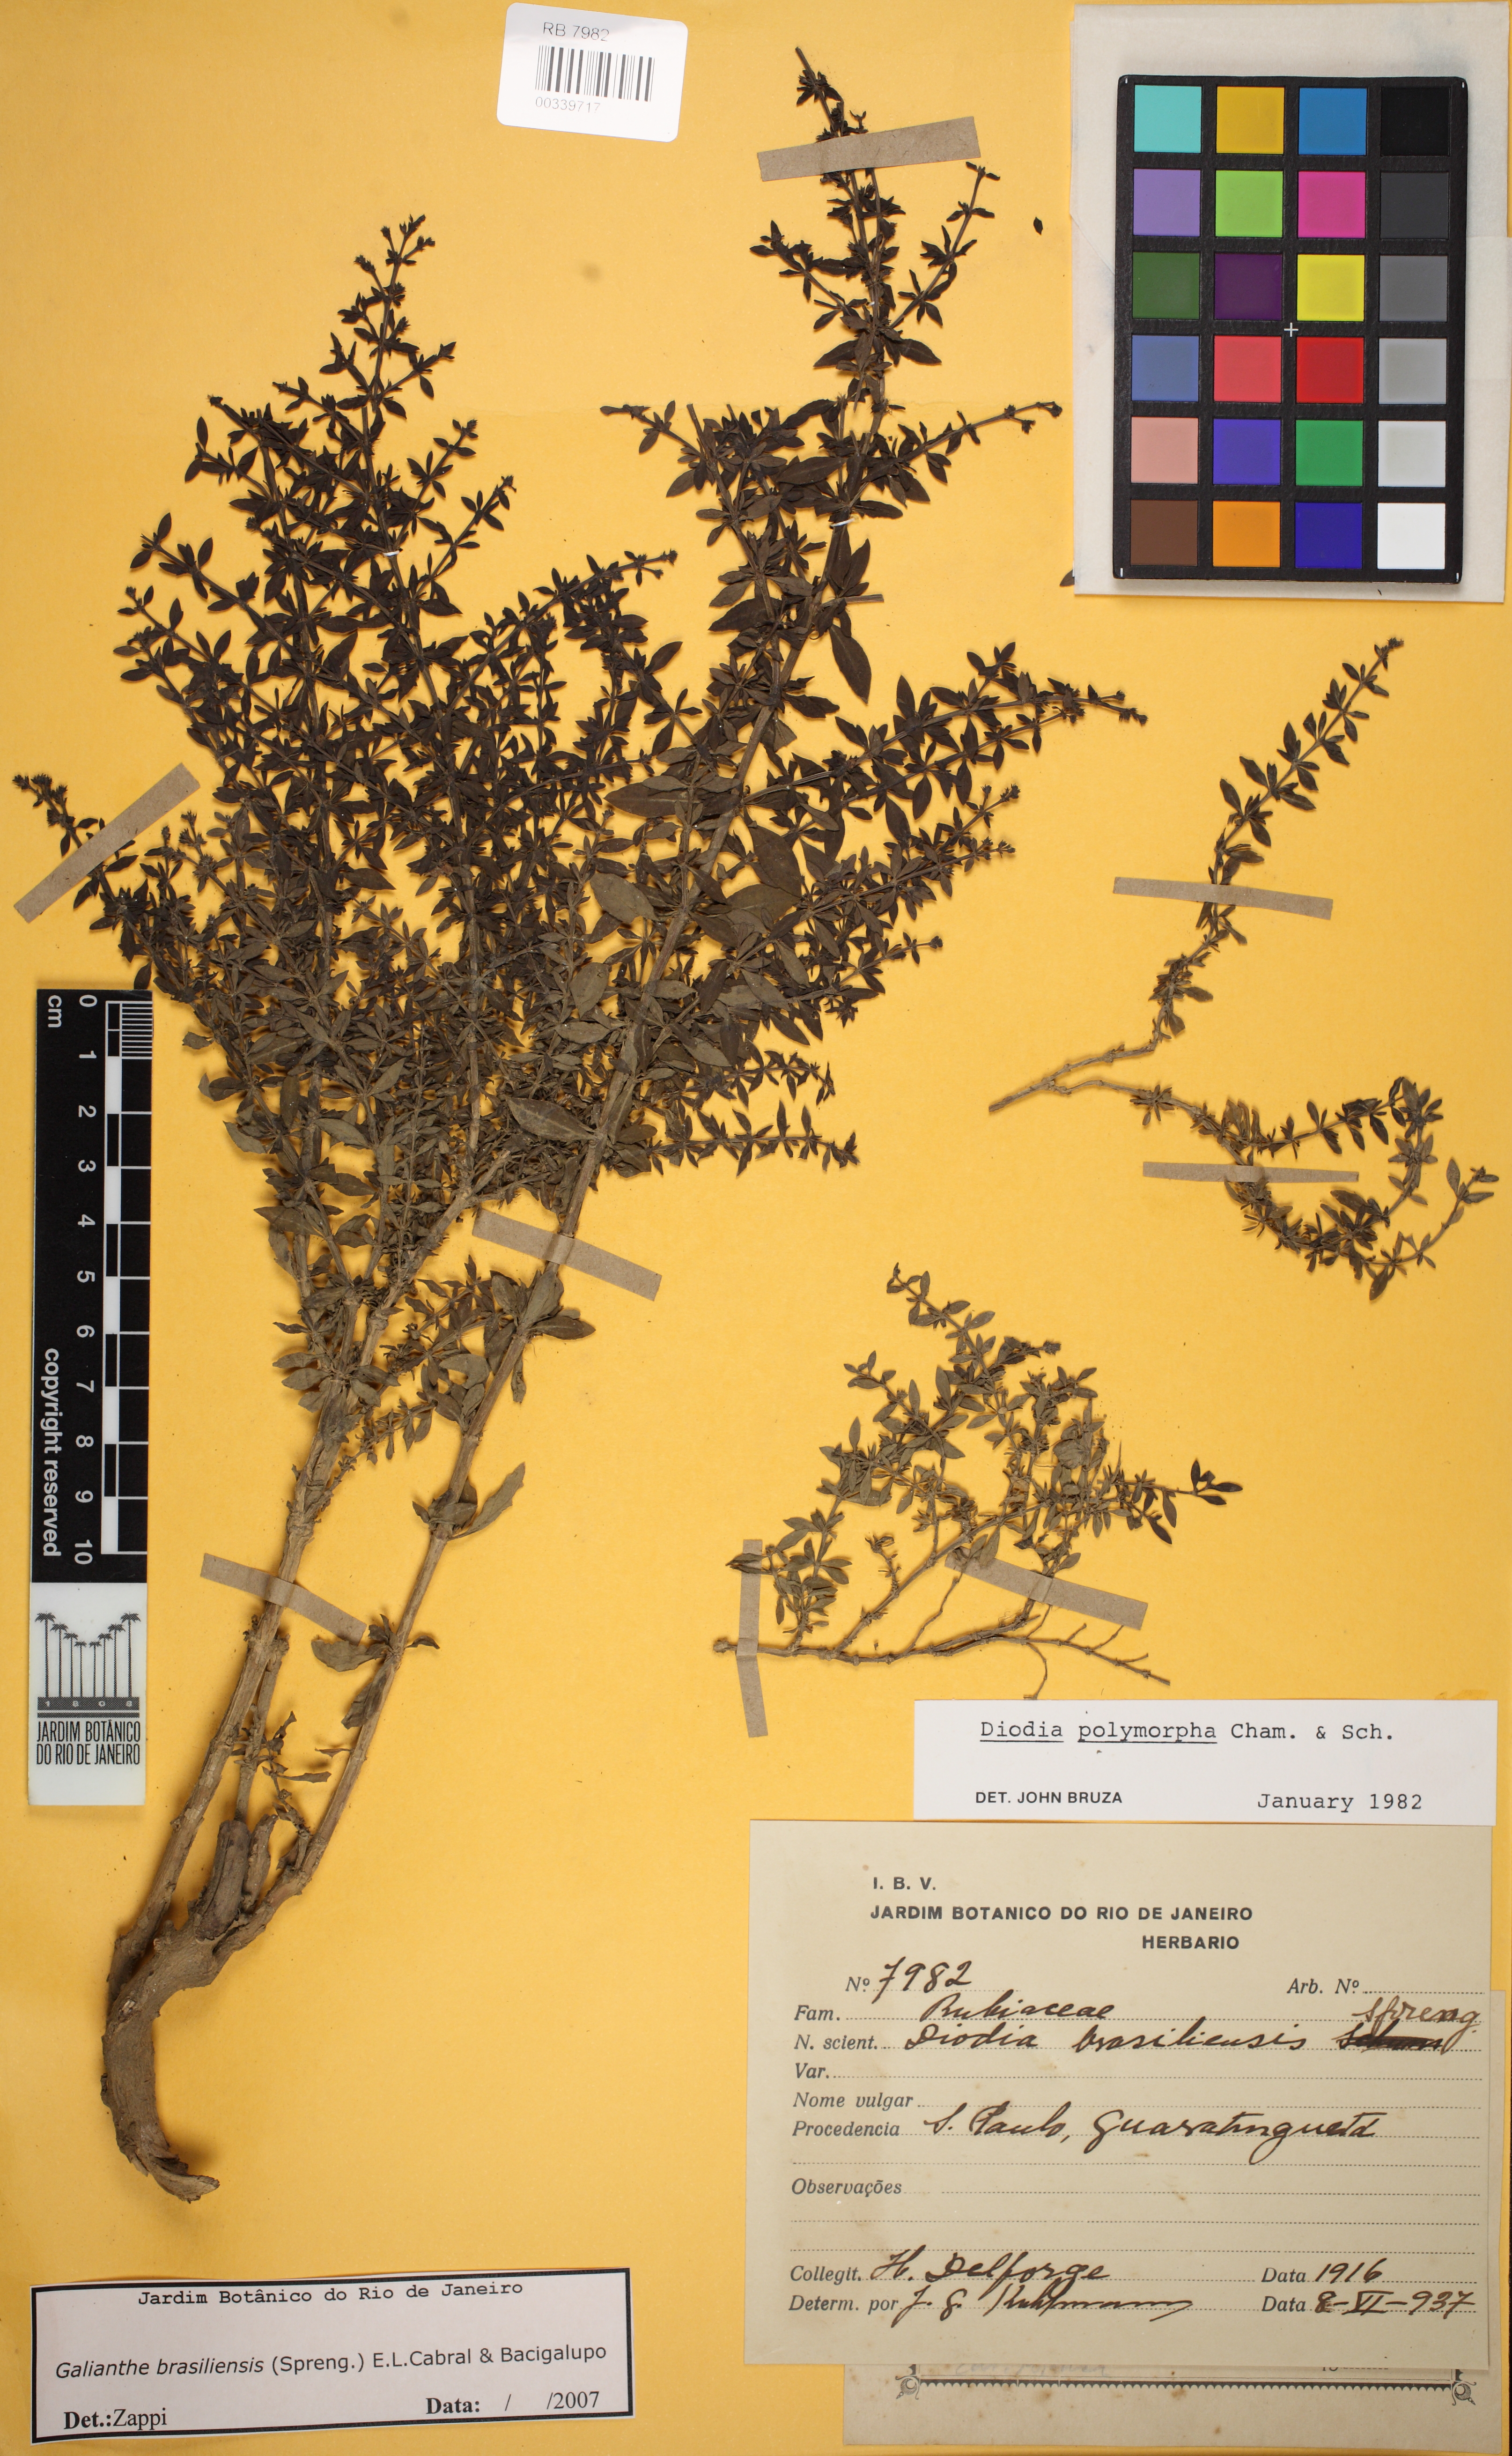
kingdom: Plantae
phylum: Tracheophyta
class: Magnoliopsida
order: Gentianales
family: Rubiaceae
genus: Galianthe
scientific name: Galianthe brasiliensis
